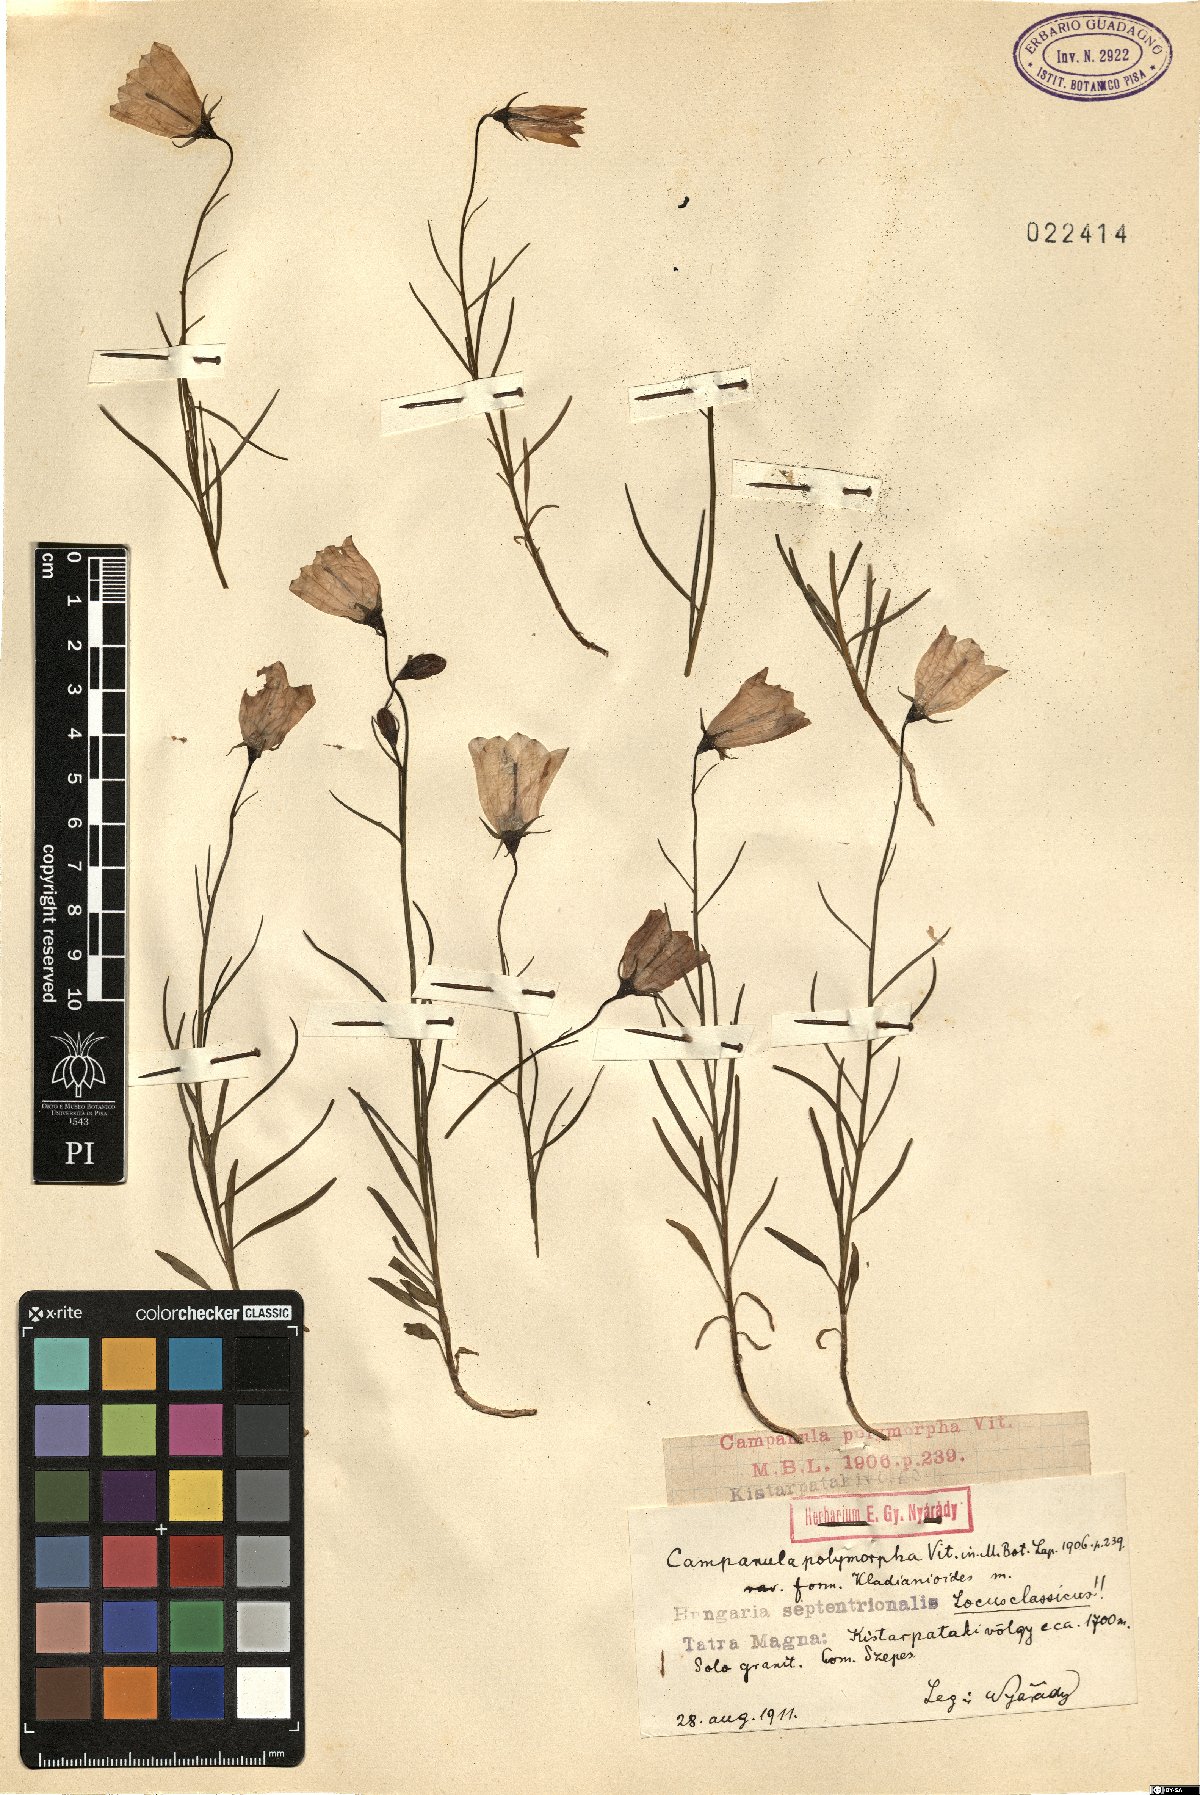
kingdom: Plantae
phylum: Tracheophyta
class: Magnoliopsida
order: Asterales
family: Campanulaceae
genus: Campanula
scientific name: Campanula tatrae
